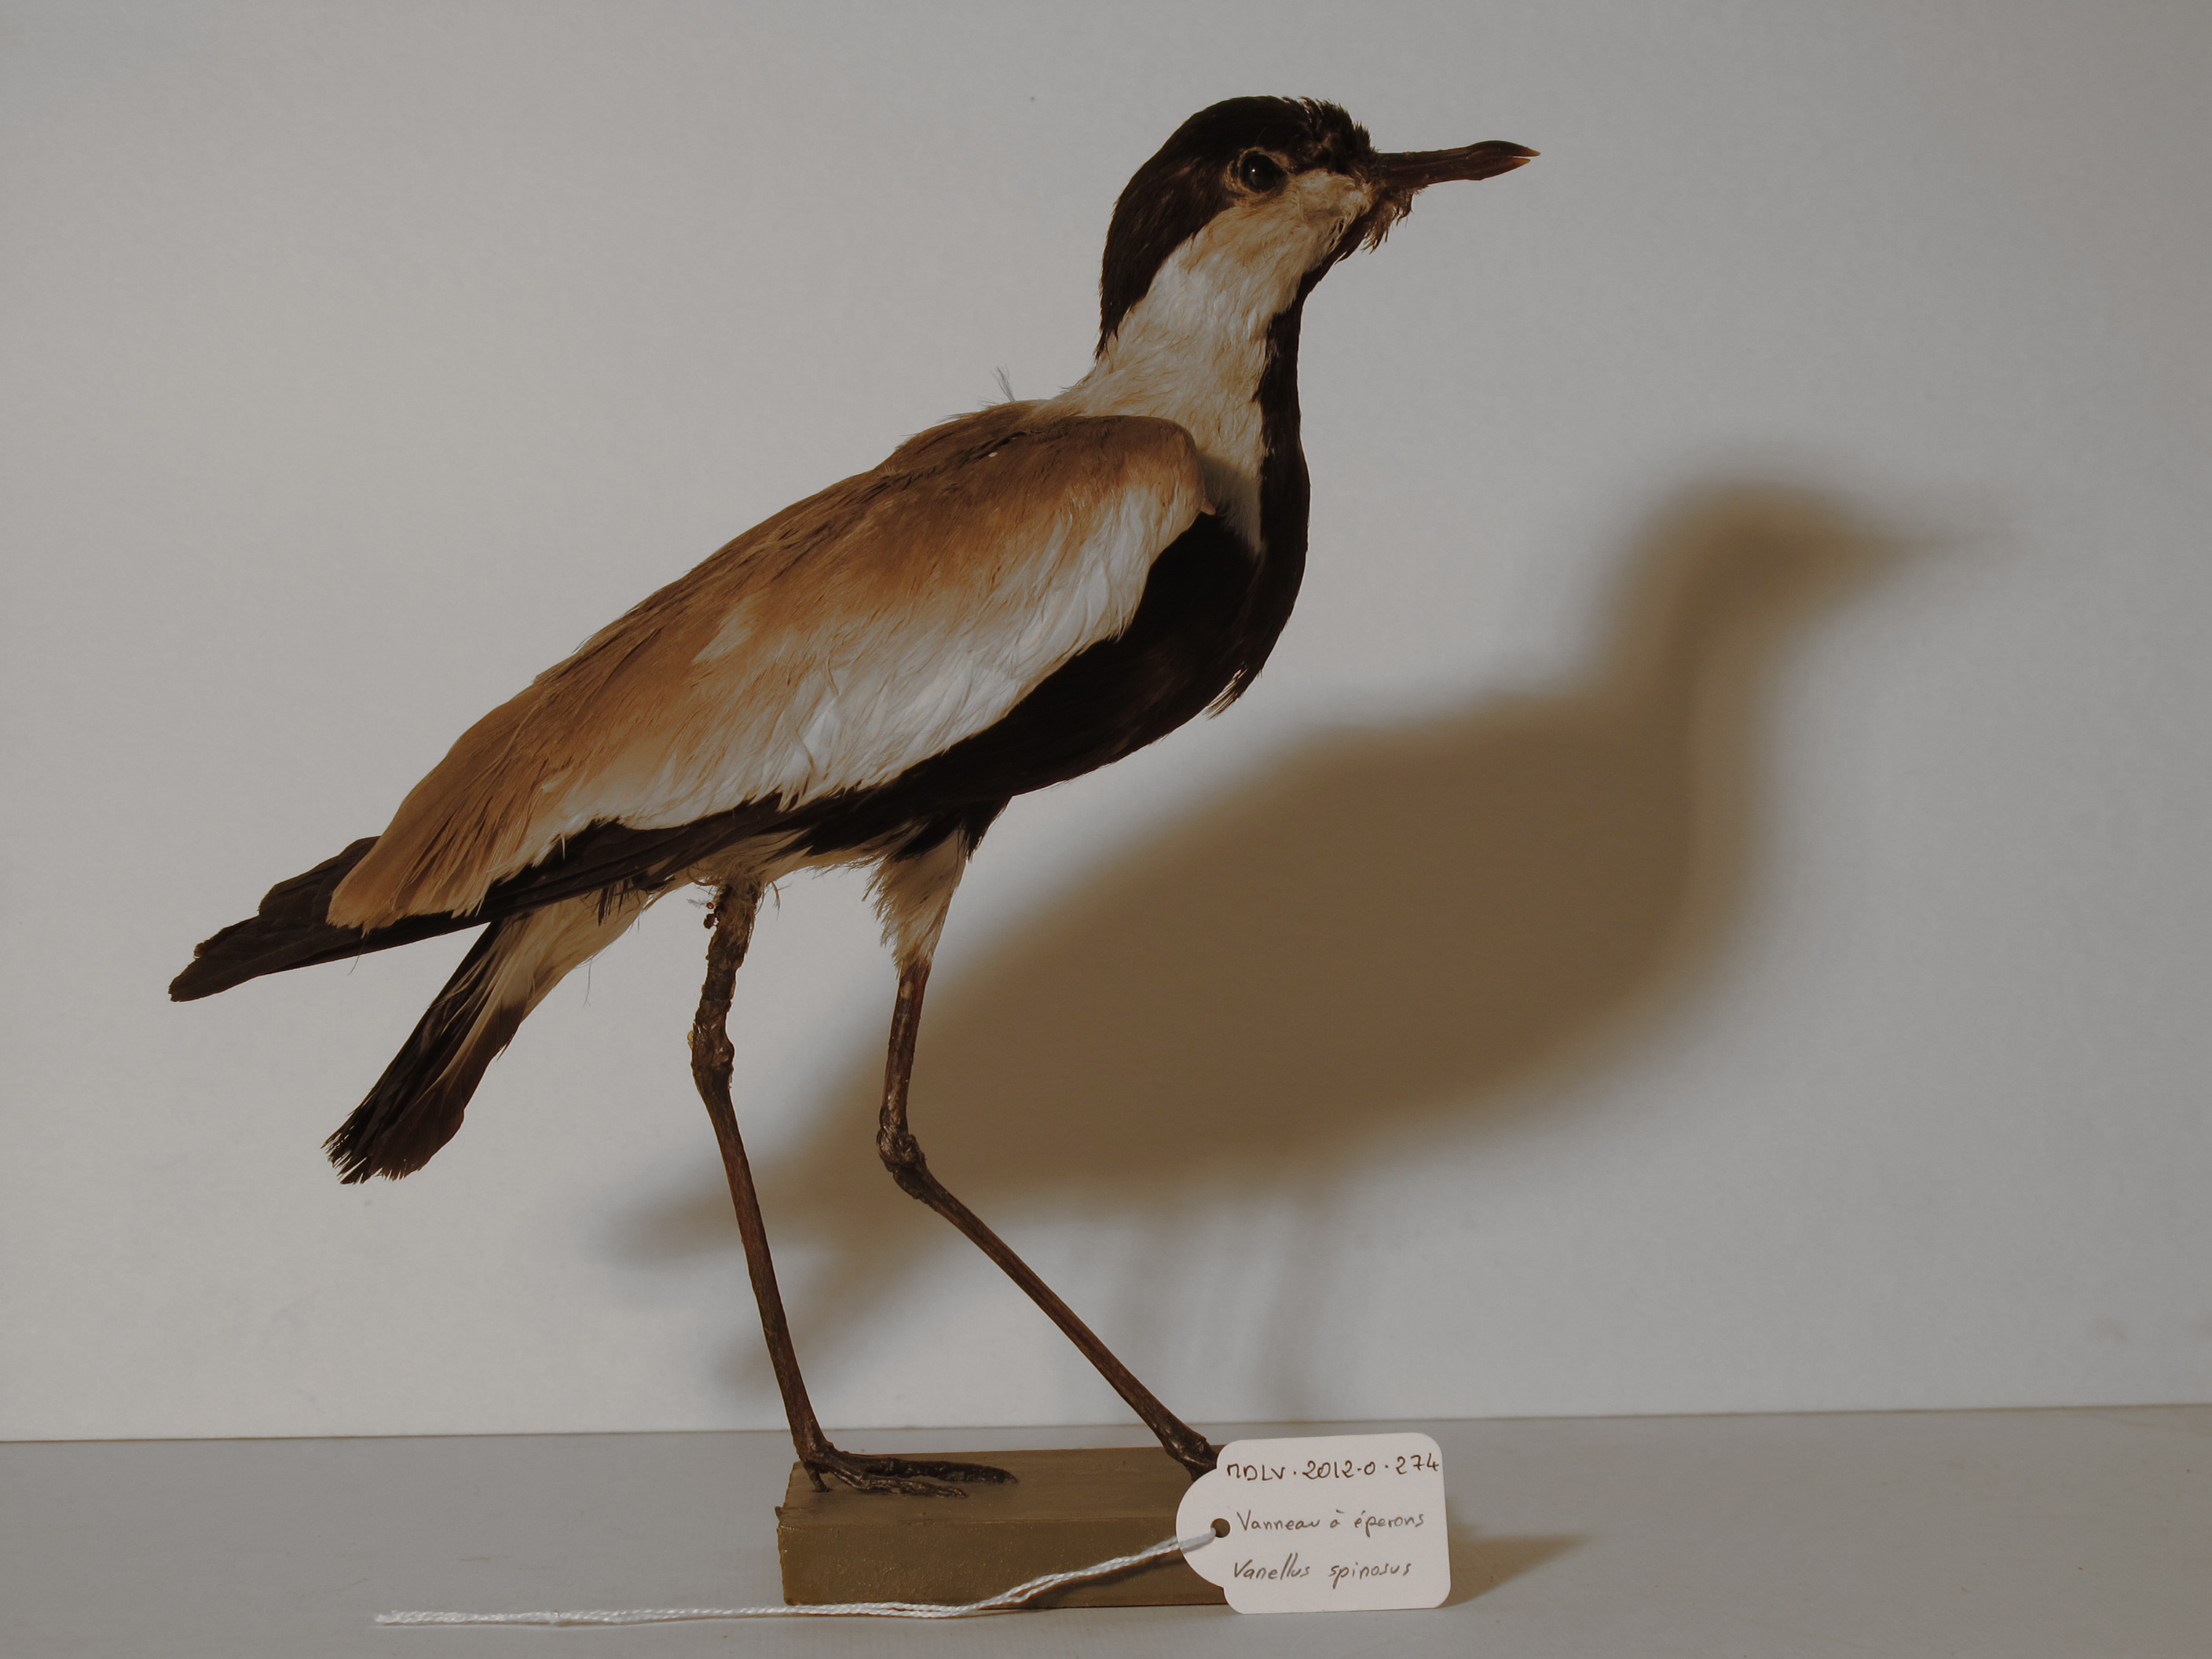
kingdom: Animalia
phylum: Chordata
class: Aves
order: Charadriiformes
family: Charadriidae
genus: Vanellus
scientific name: Vanellus spinosus
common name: Spur-winged Lapwing
